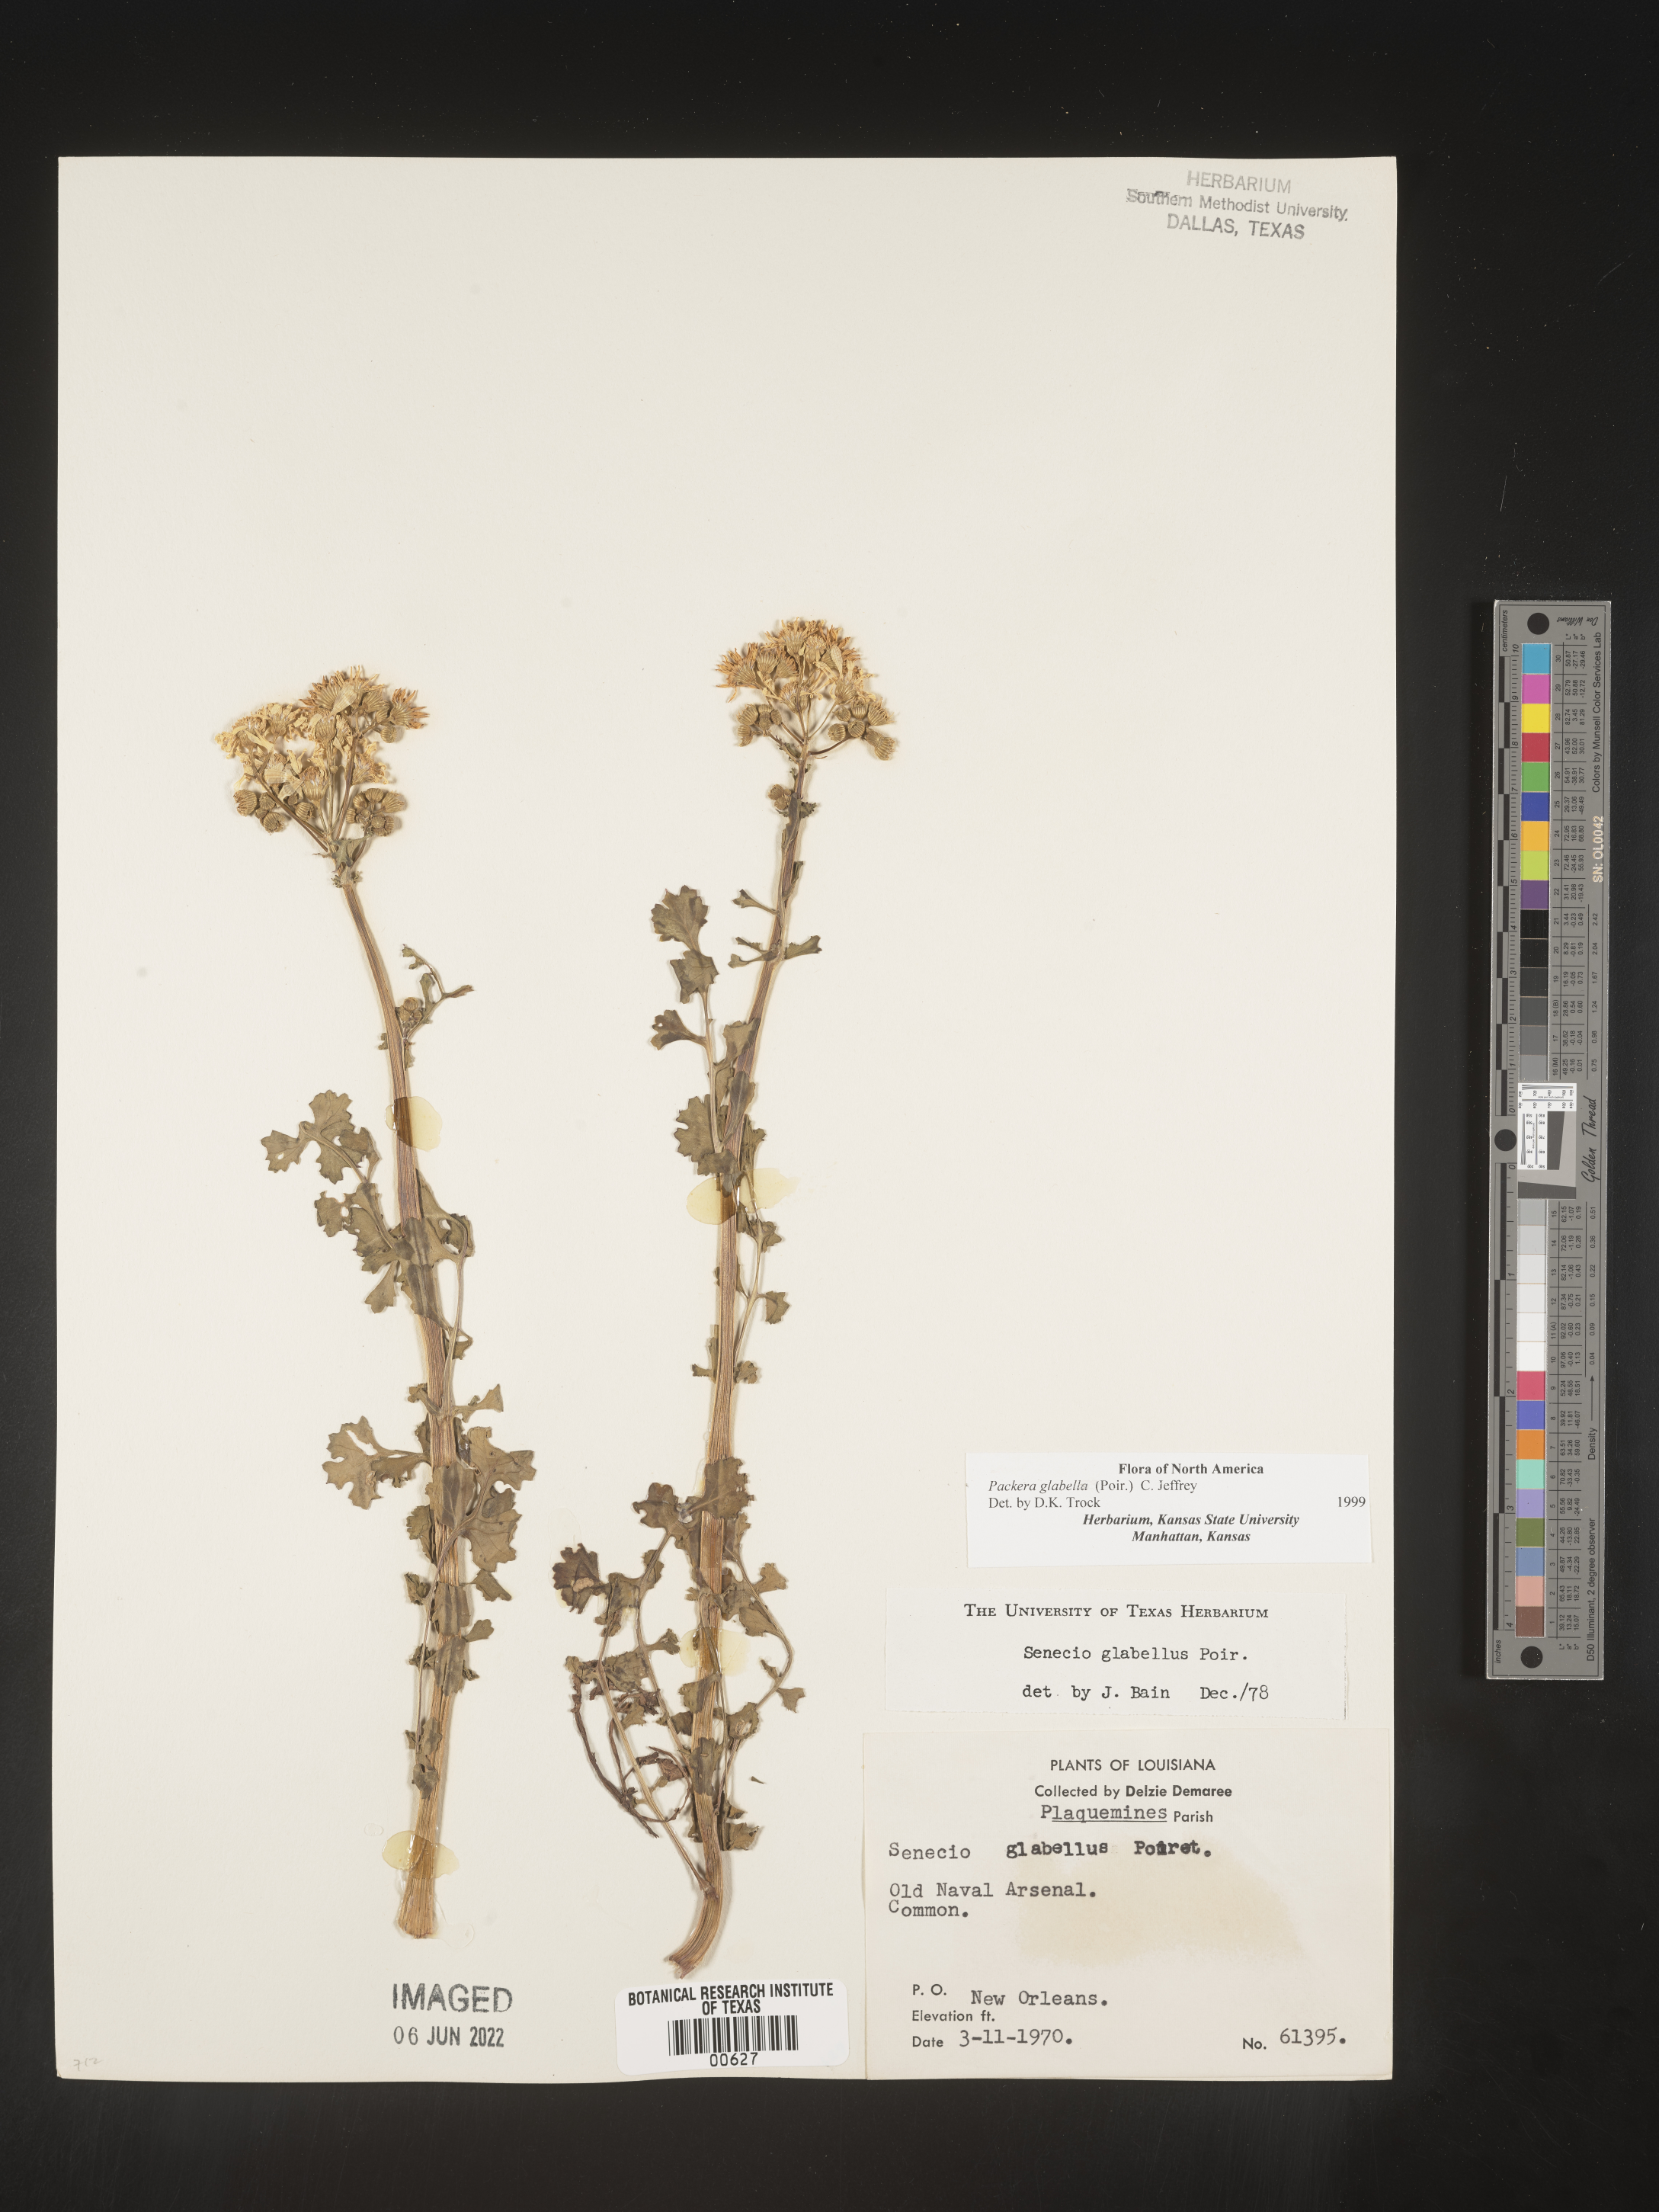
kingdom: Plantae
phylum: Tracheophyta
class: Magnoliopsida
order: Asterales
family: Asteraceae
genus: Packera
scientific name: Packera glabella
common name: Butterweed
